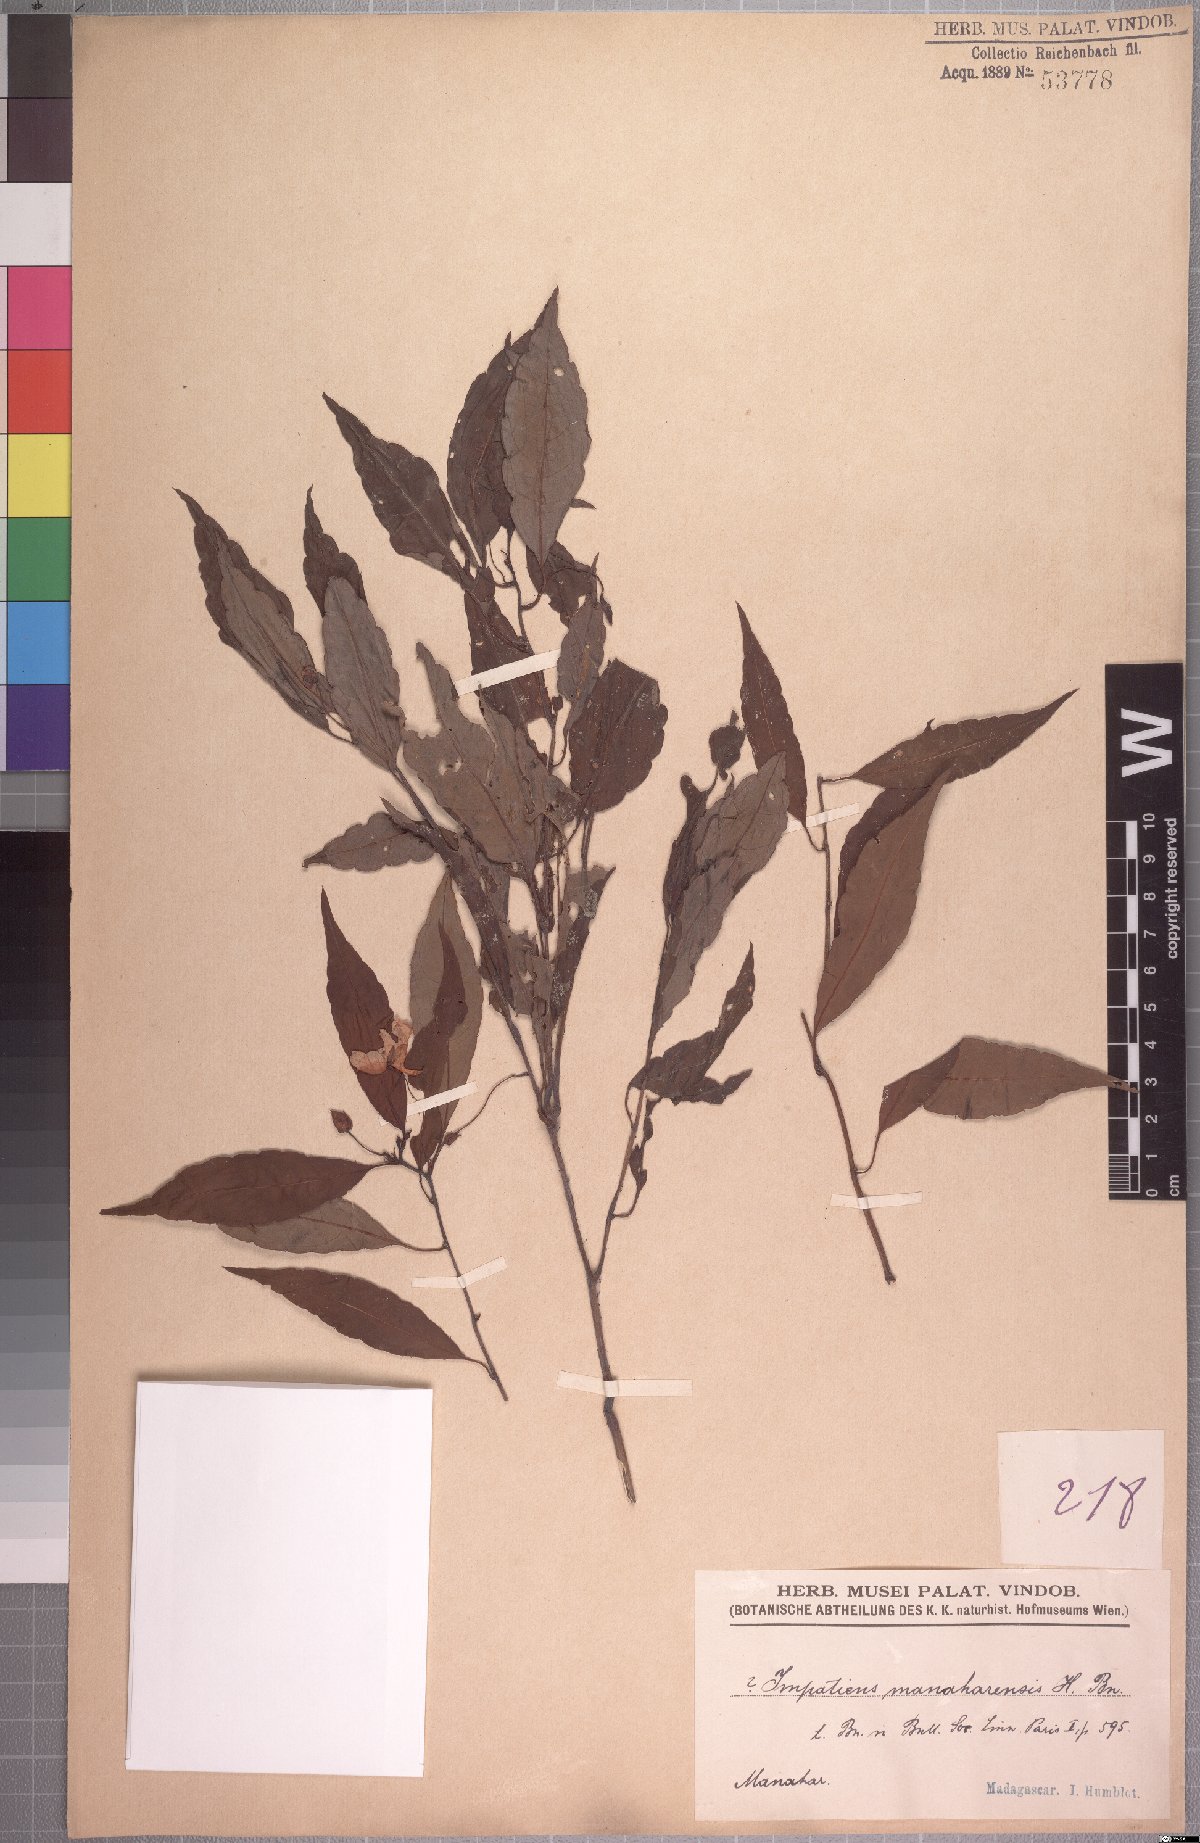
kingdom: Plantae
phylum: Tracheophyta
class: Magnoliopsida
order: Ericales
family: Balsaminaceae
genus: Impatiens
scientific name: Impatiens manaharensis
